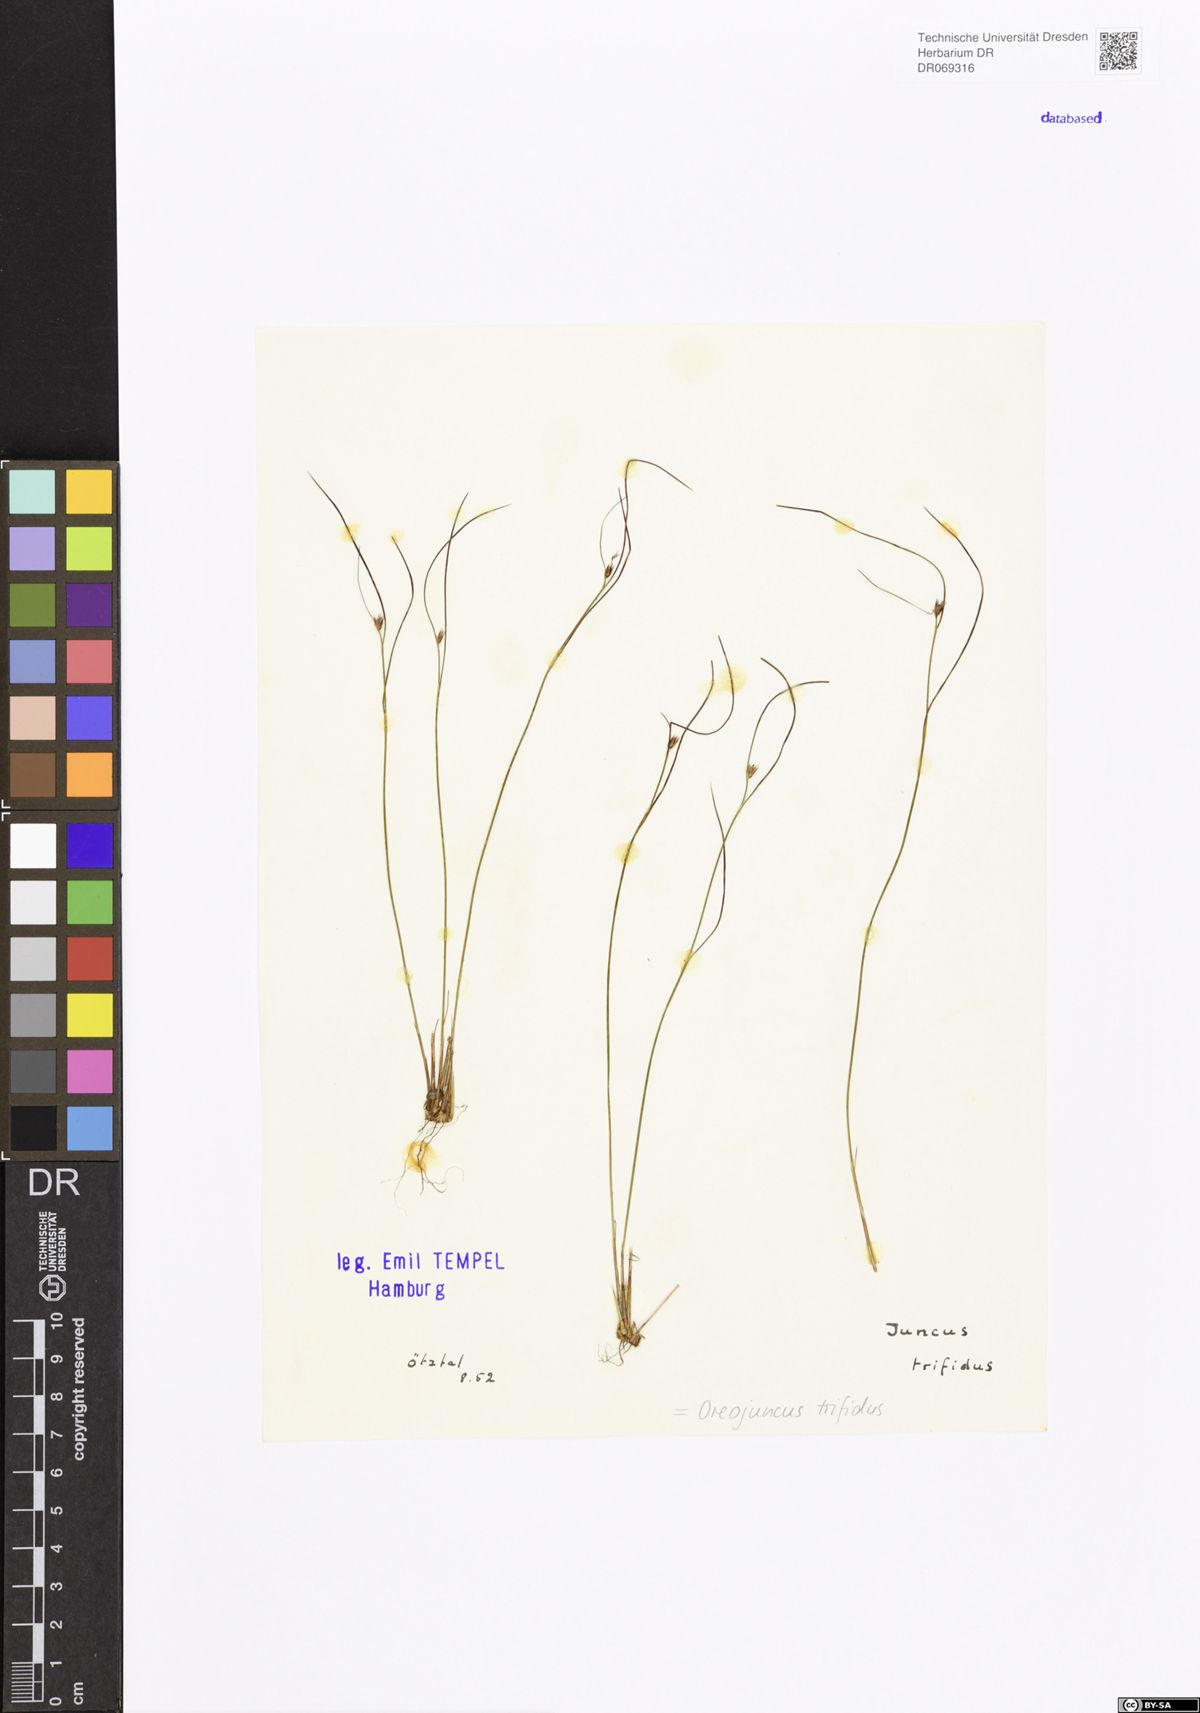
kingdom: Plantae
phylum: Tracheophyta
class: Liliopsida
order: Poales
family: Juncaceae
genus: Oreojuncus
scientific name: Oreojuncus trifidus
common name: Highland rush
